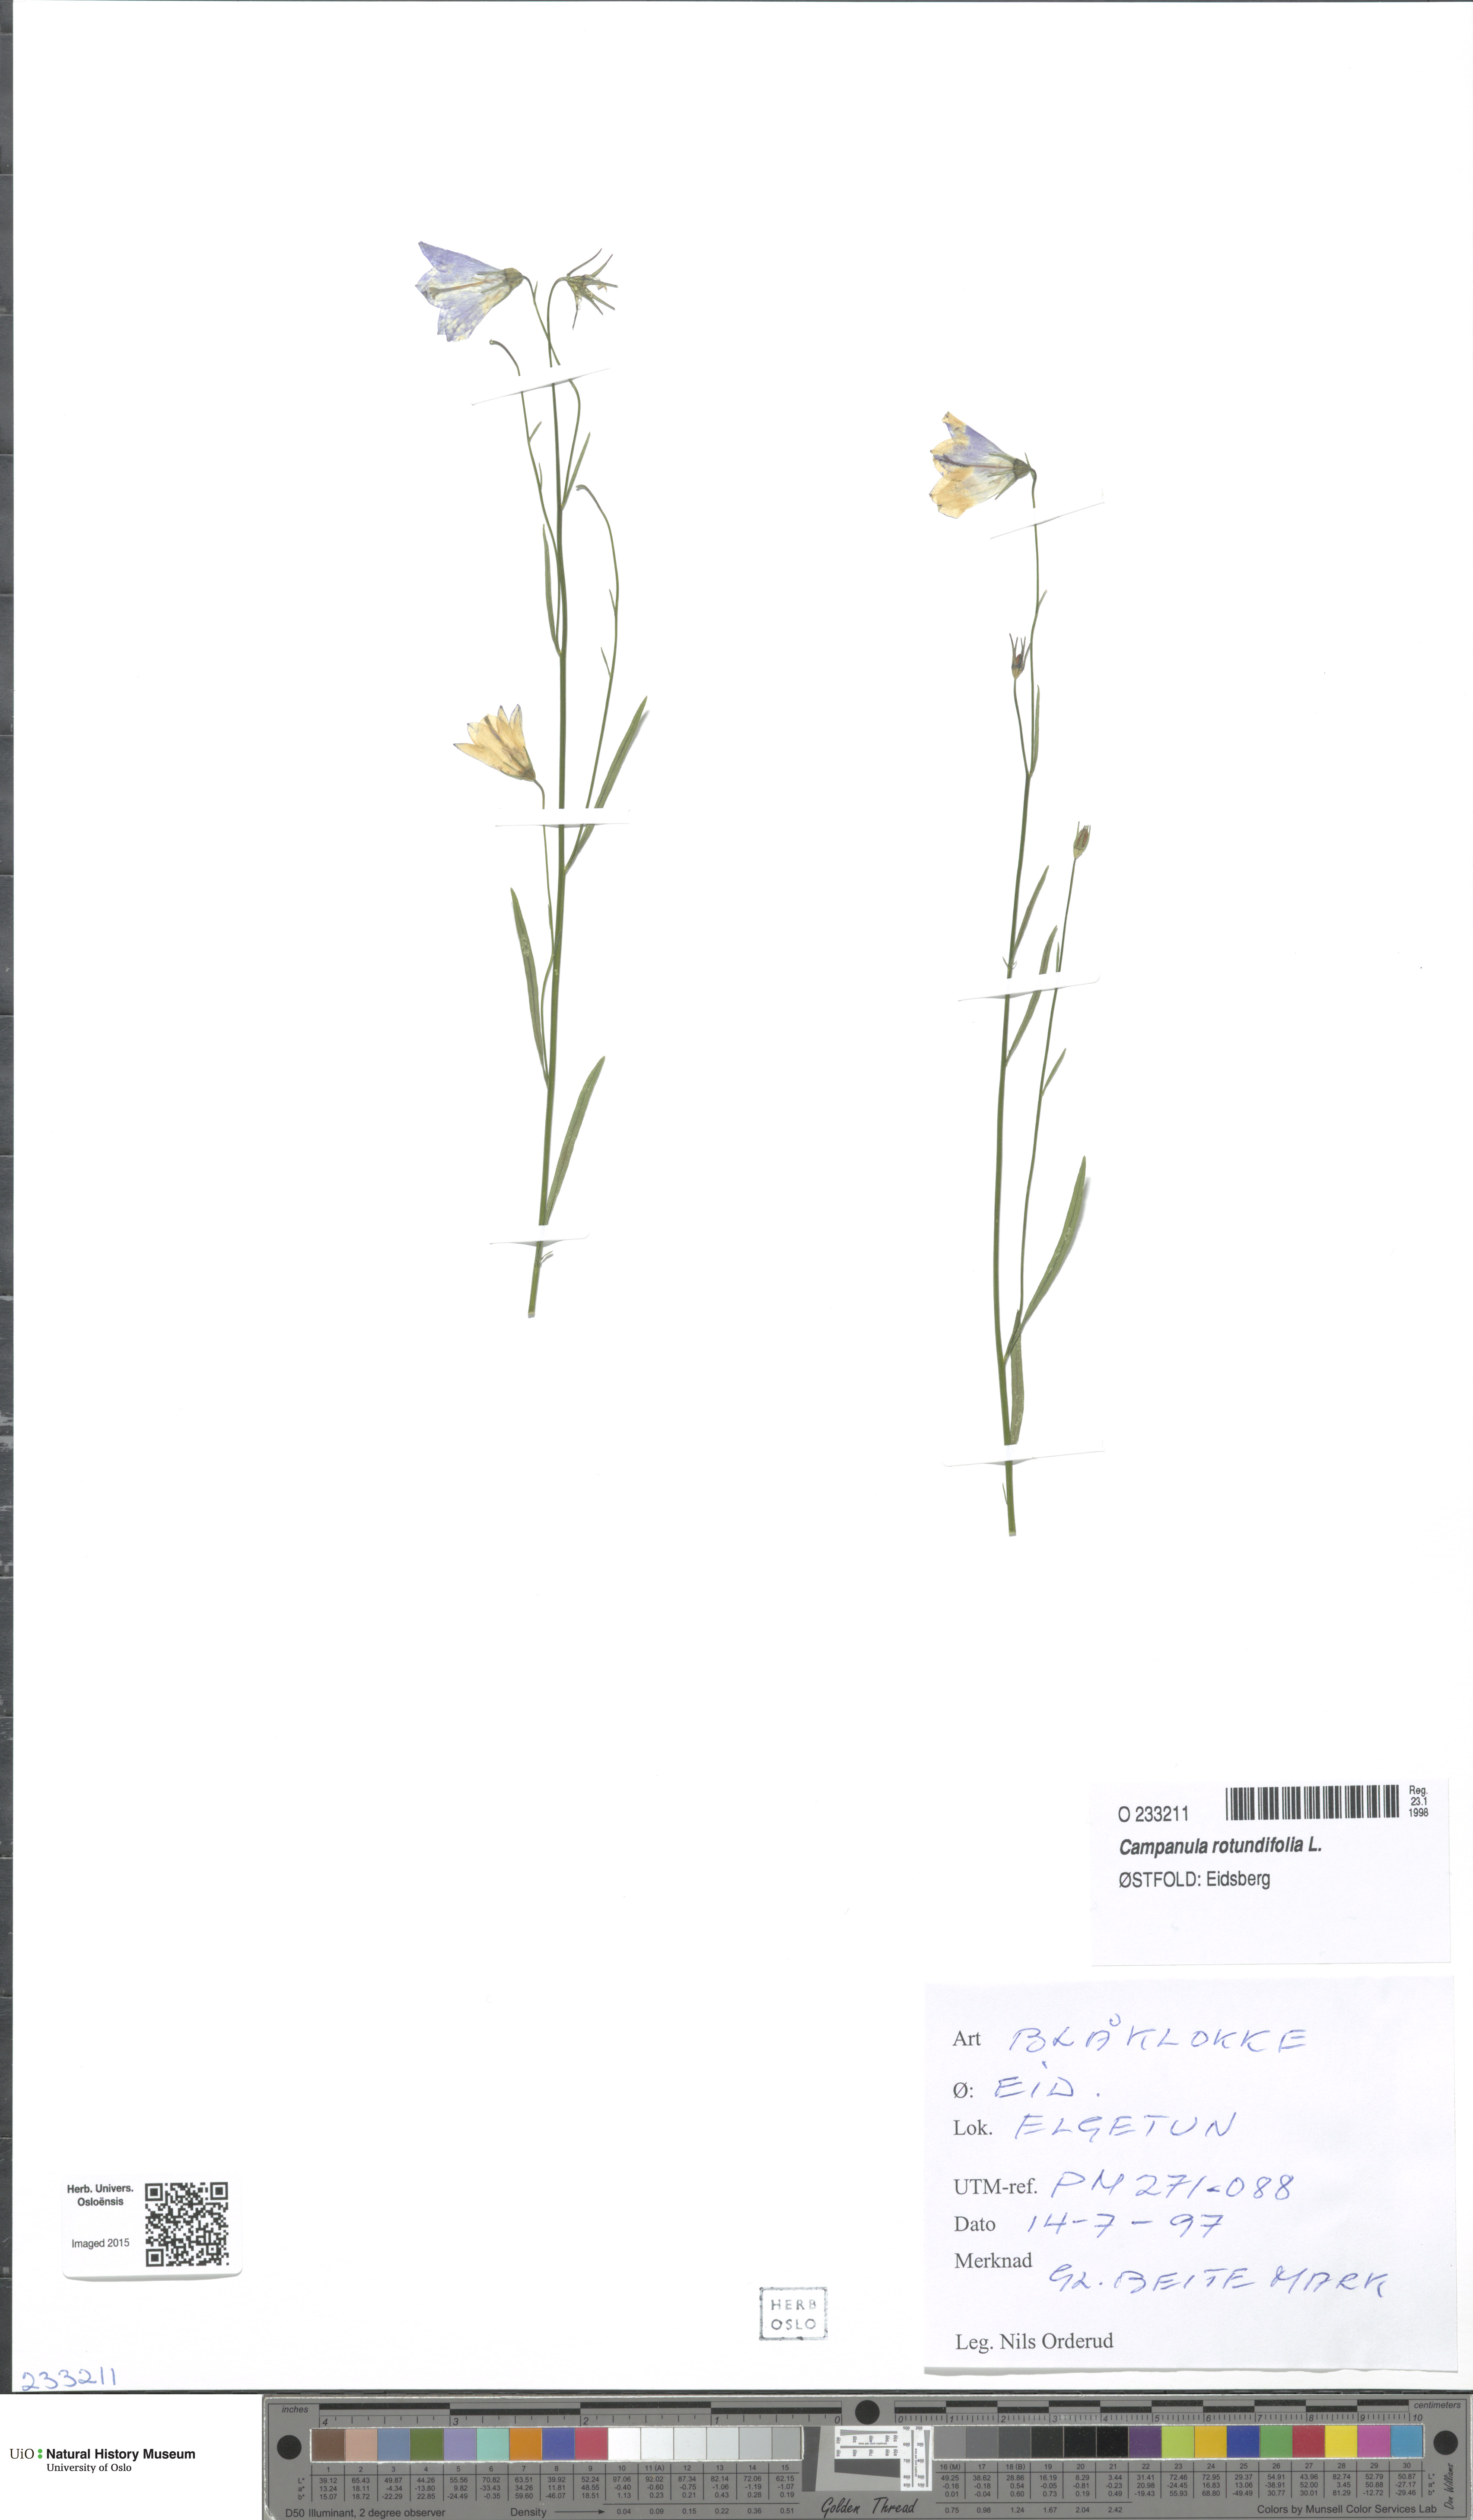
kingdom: Plantae
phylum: Tracheophyta
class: Magnoliopsida
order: Asterales
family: Campanulaceae
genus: Campanula
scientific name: Campanula rotundifolia
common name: Harebell
